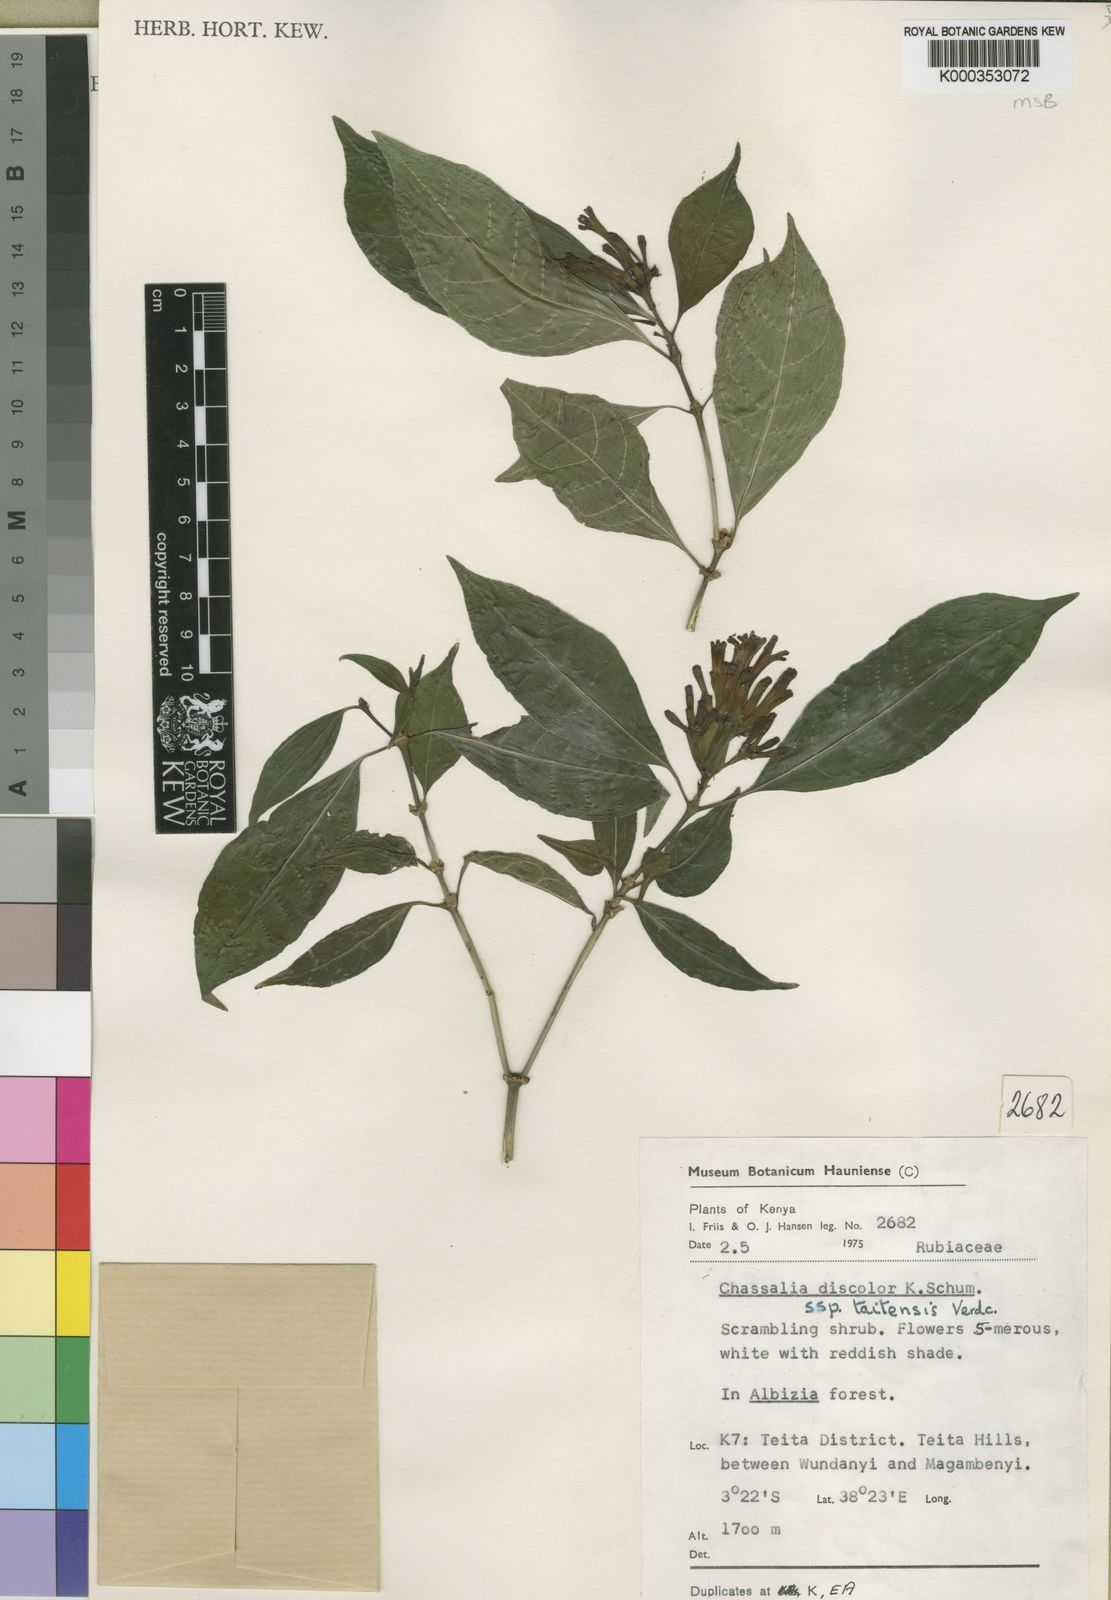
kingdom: Plantae
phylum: Tracheophyta
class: Magnoliopsida
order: Gentianales
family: Rubiaceae
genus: Chassalia
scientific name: Chassalia discolor
